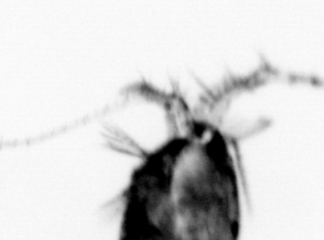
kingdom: Animalia
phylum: Arthropoda
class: Copepoda
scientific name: Copepoda
